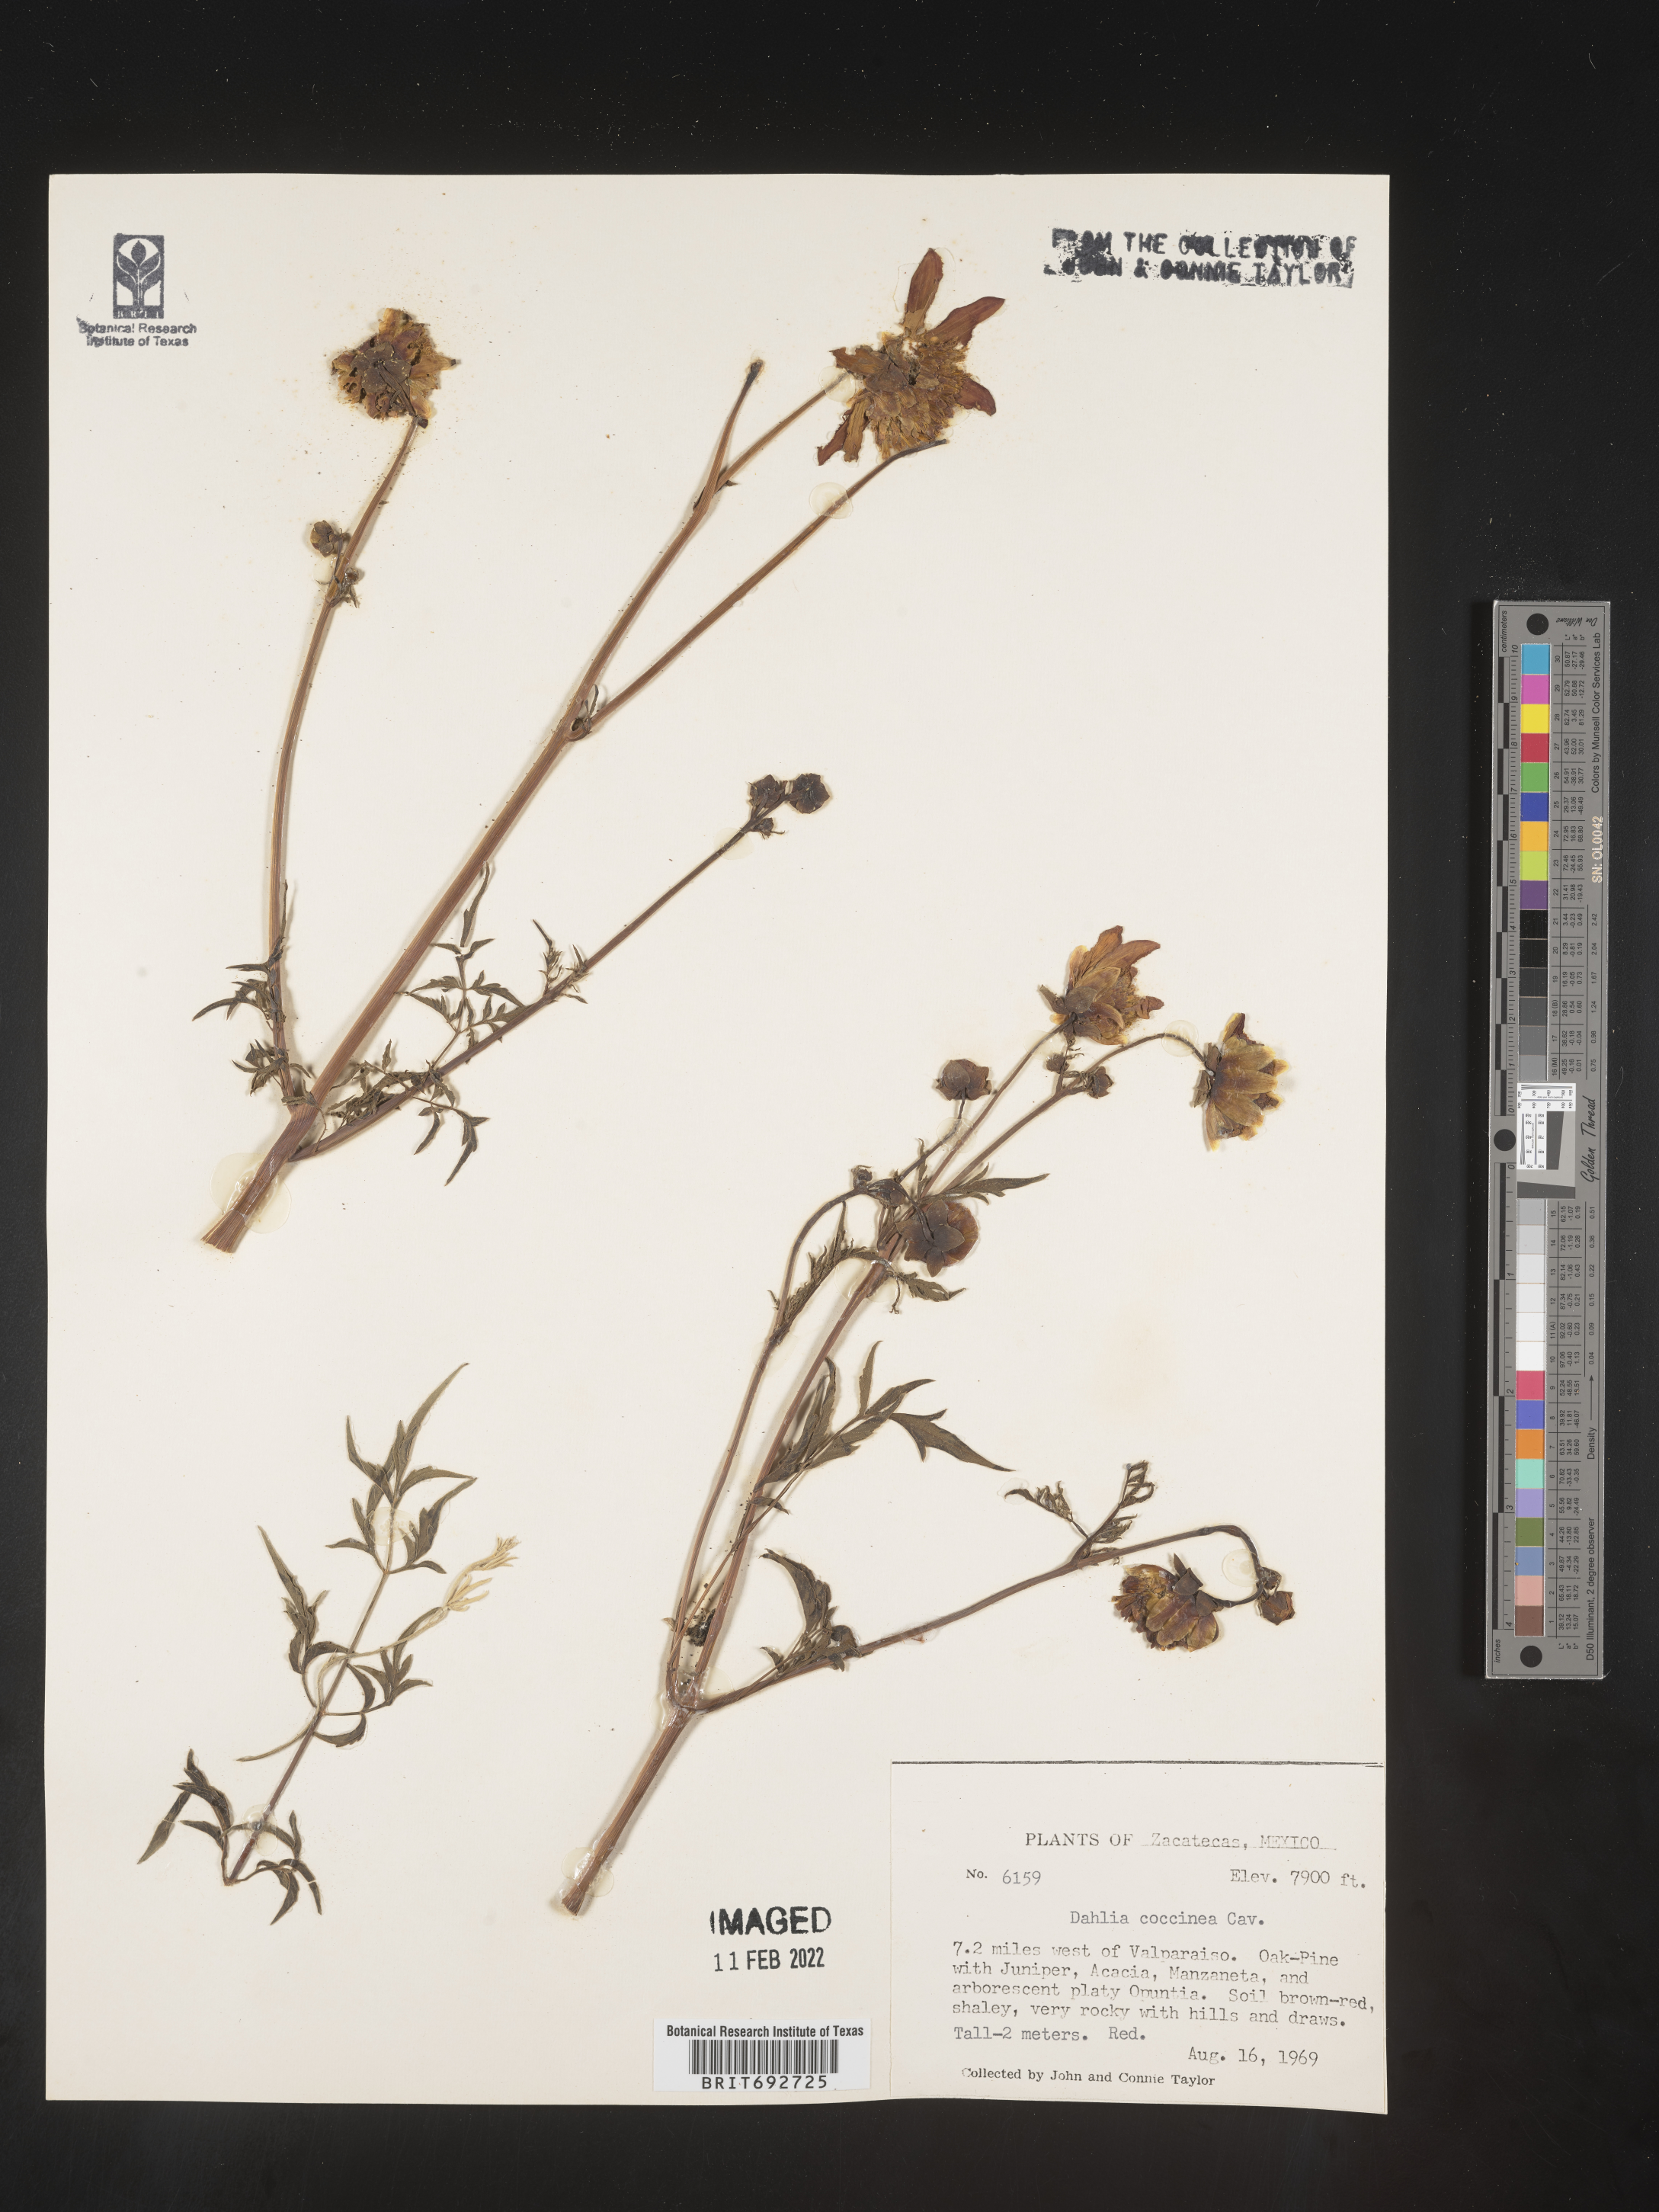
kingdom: Plantae
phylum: Tracheophyta
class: Magnoliopsida
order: Asterales
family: Asteraceae
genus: Dahlia
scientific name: Dahlia
